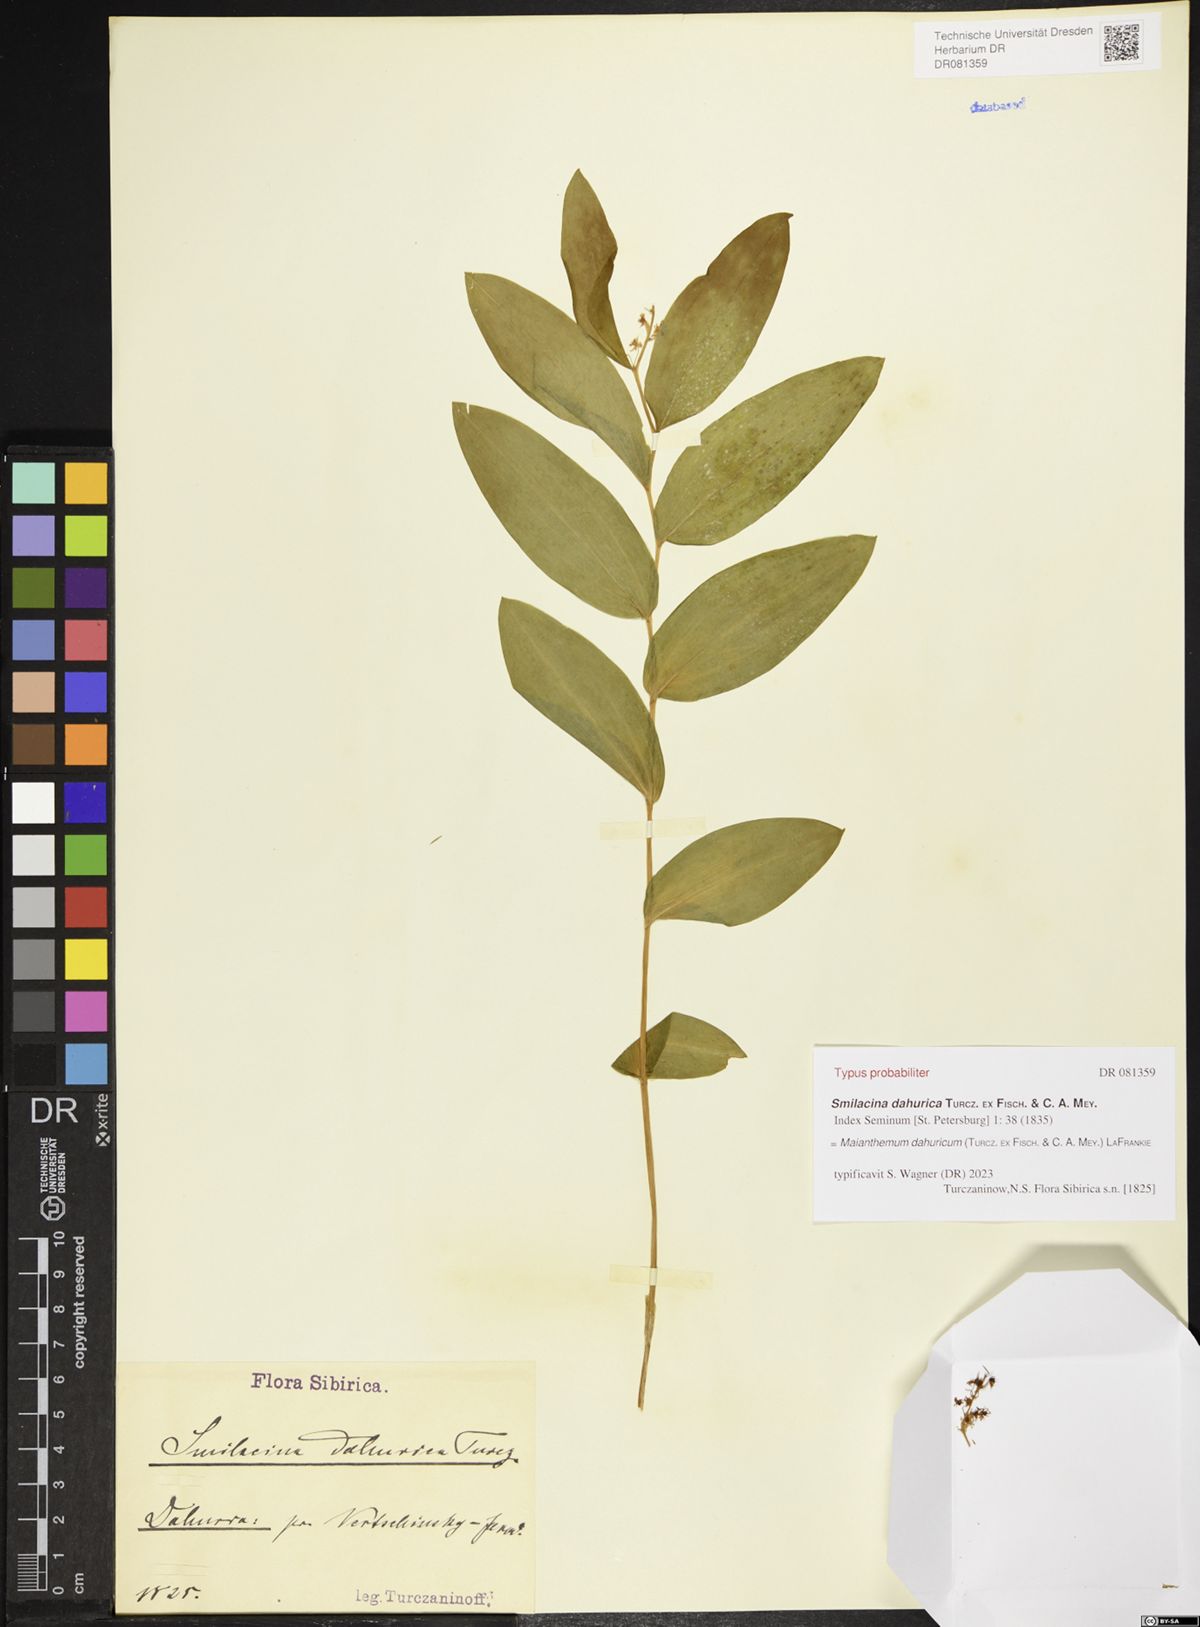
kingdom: Plantae
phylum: Tracheophyta
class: Liliopsida
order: Asparagales
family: Asparagaceae
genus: Maianthemum
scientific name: Maianthemum dahuricum
